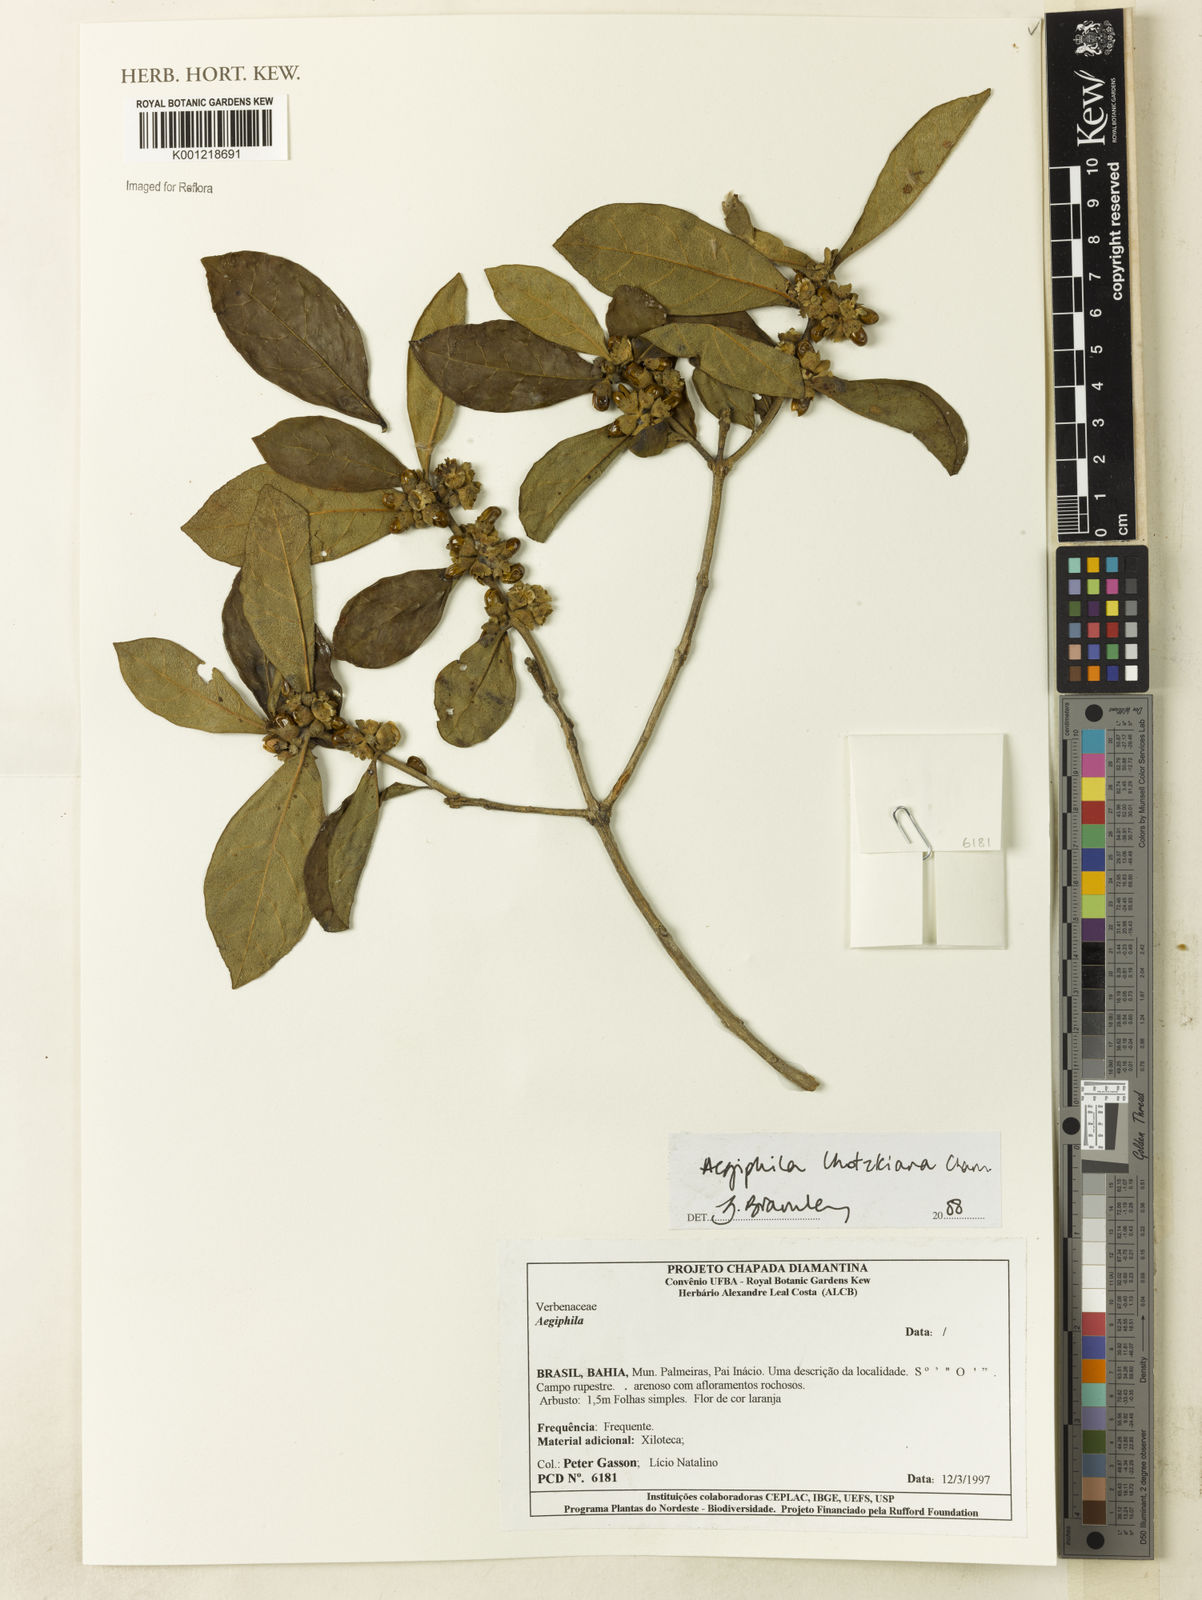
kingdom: Plantae
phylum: Tracheophyta
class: Magnoliopsida
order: Lamiales
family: Lamiaceae
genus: Aegiphila
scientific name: Aegiphila verticillata
